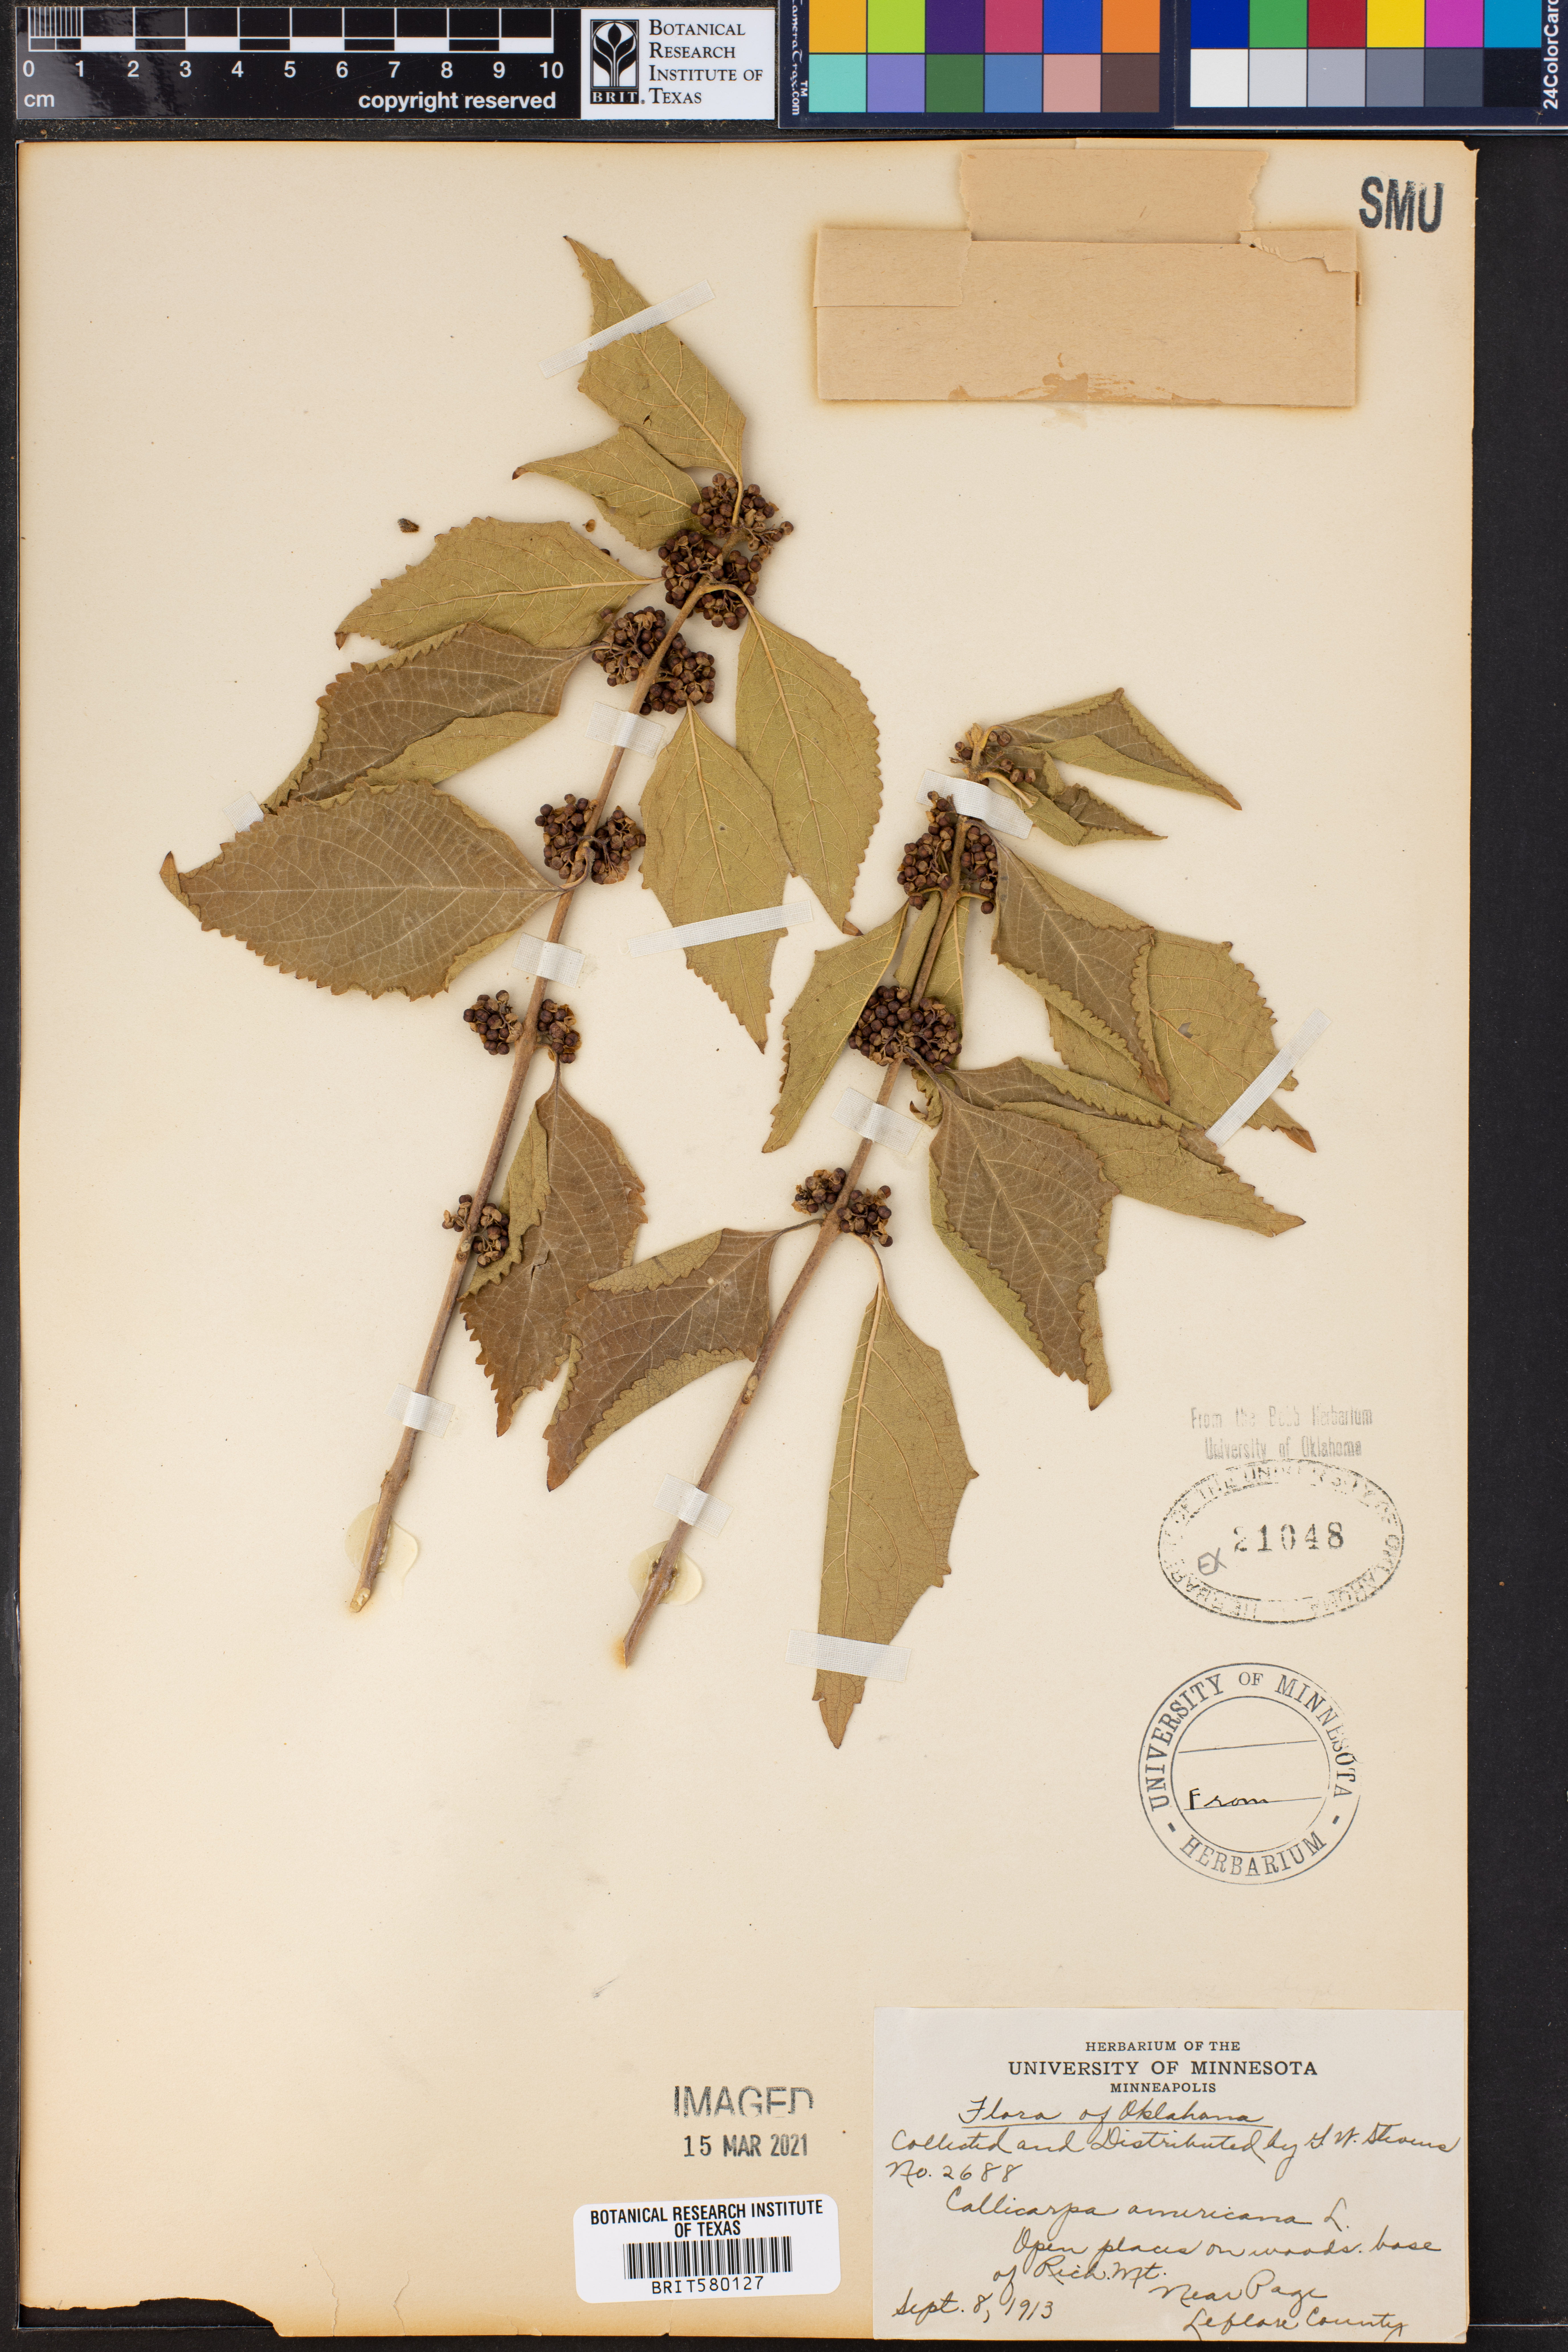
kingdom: Plantae
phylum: Tracheophyta
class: Magnoliopsida
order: Lamiales
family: Lamiaceae
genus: Callicarpa
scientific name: Callicarpa americana
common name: American beautyberry
